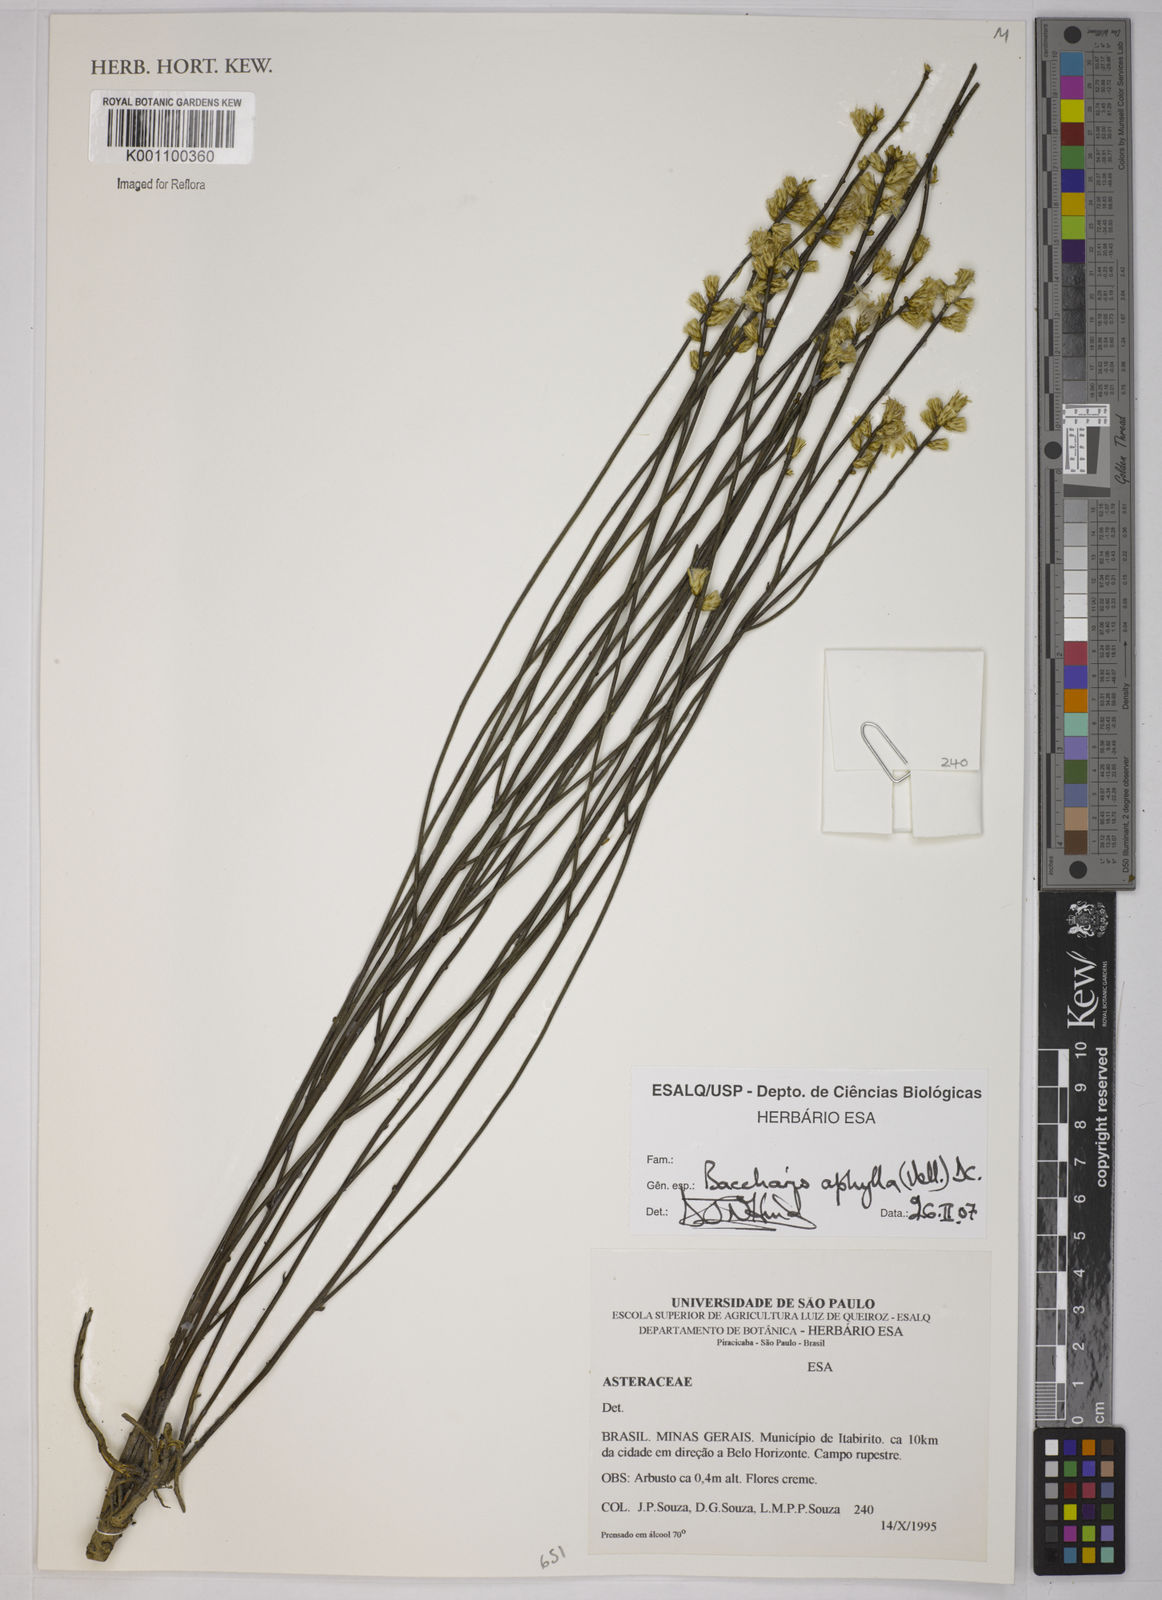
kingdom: Plantae
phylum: Tracheophyta
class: Magnoliopsida
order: Asterales
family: Asteraceae
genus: Baccharis
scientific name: Baccharis aphylla
